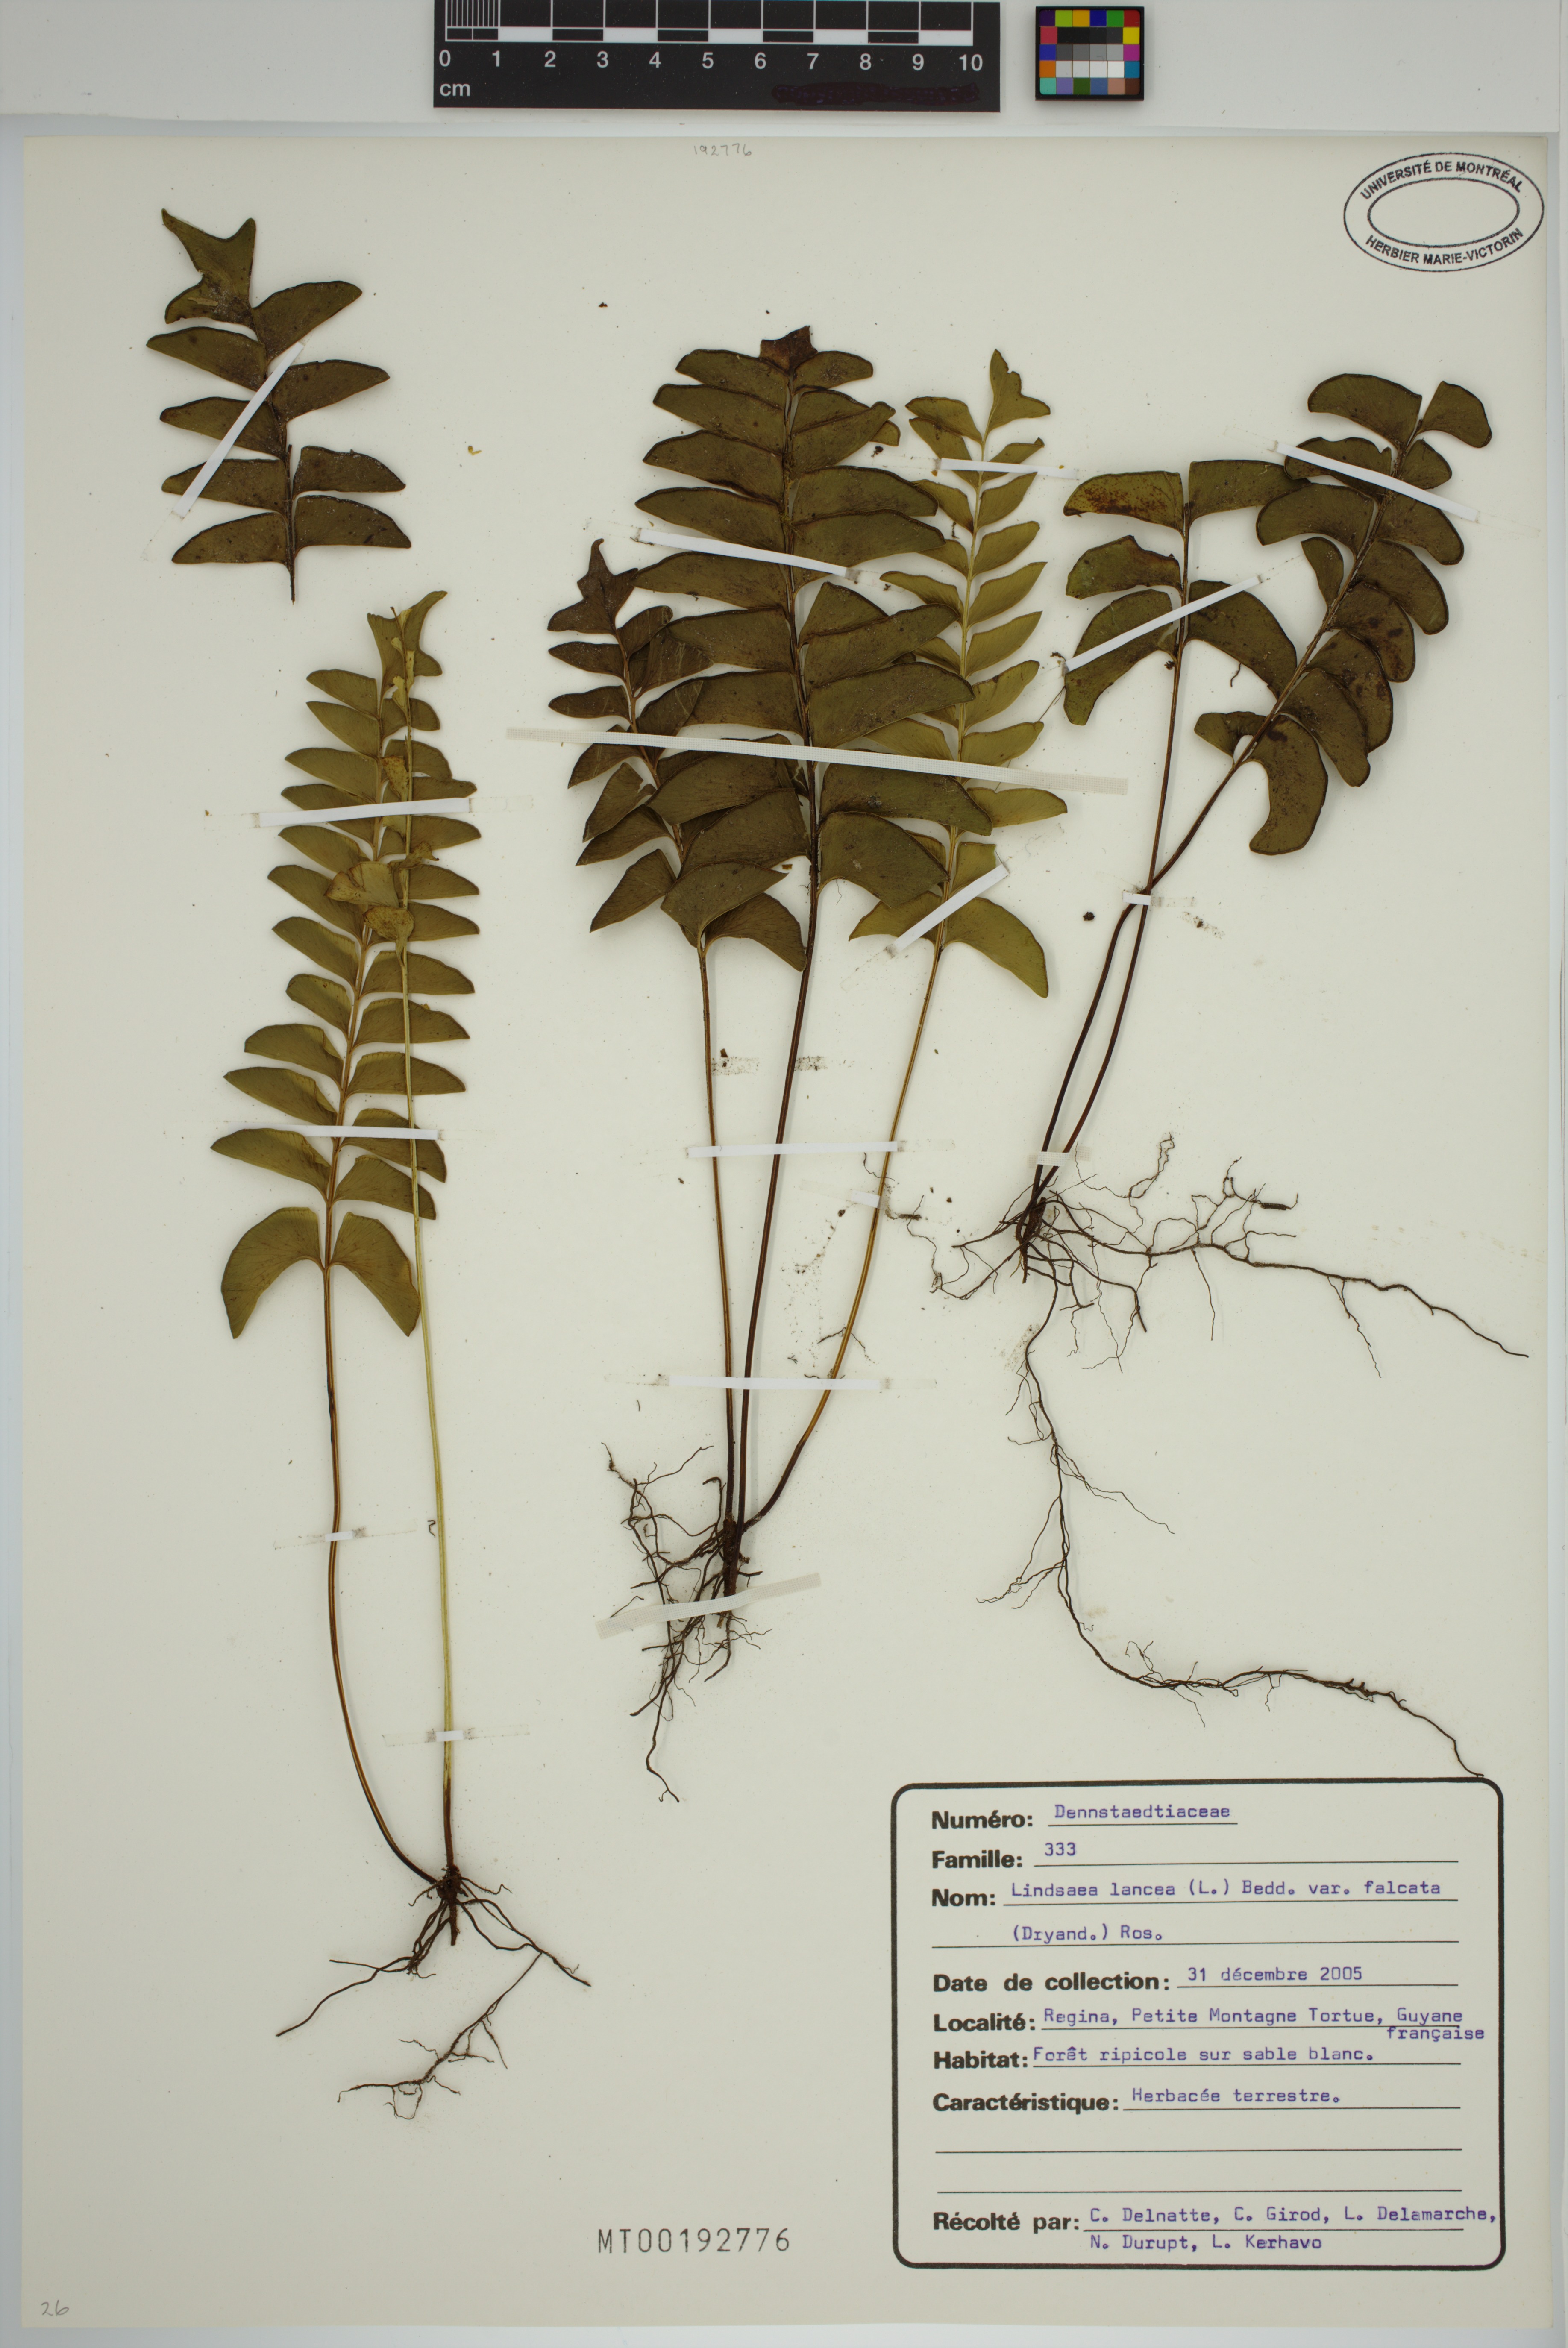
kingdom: Plantae
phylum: Tracheophyta
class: Polypodiopsida
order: Polypodiales
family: Lindsaeaceae
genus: Lindsaea
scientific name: Lindsaea falcata
